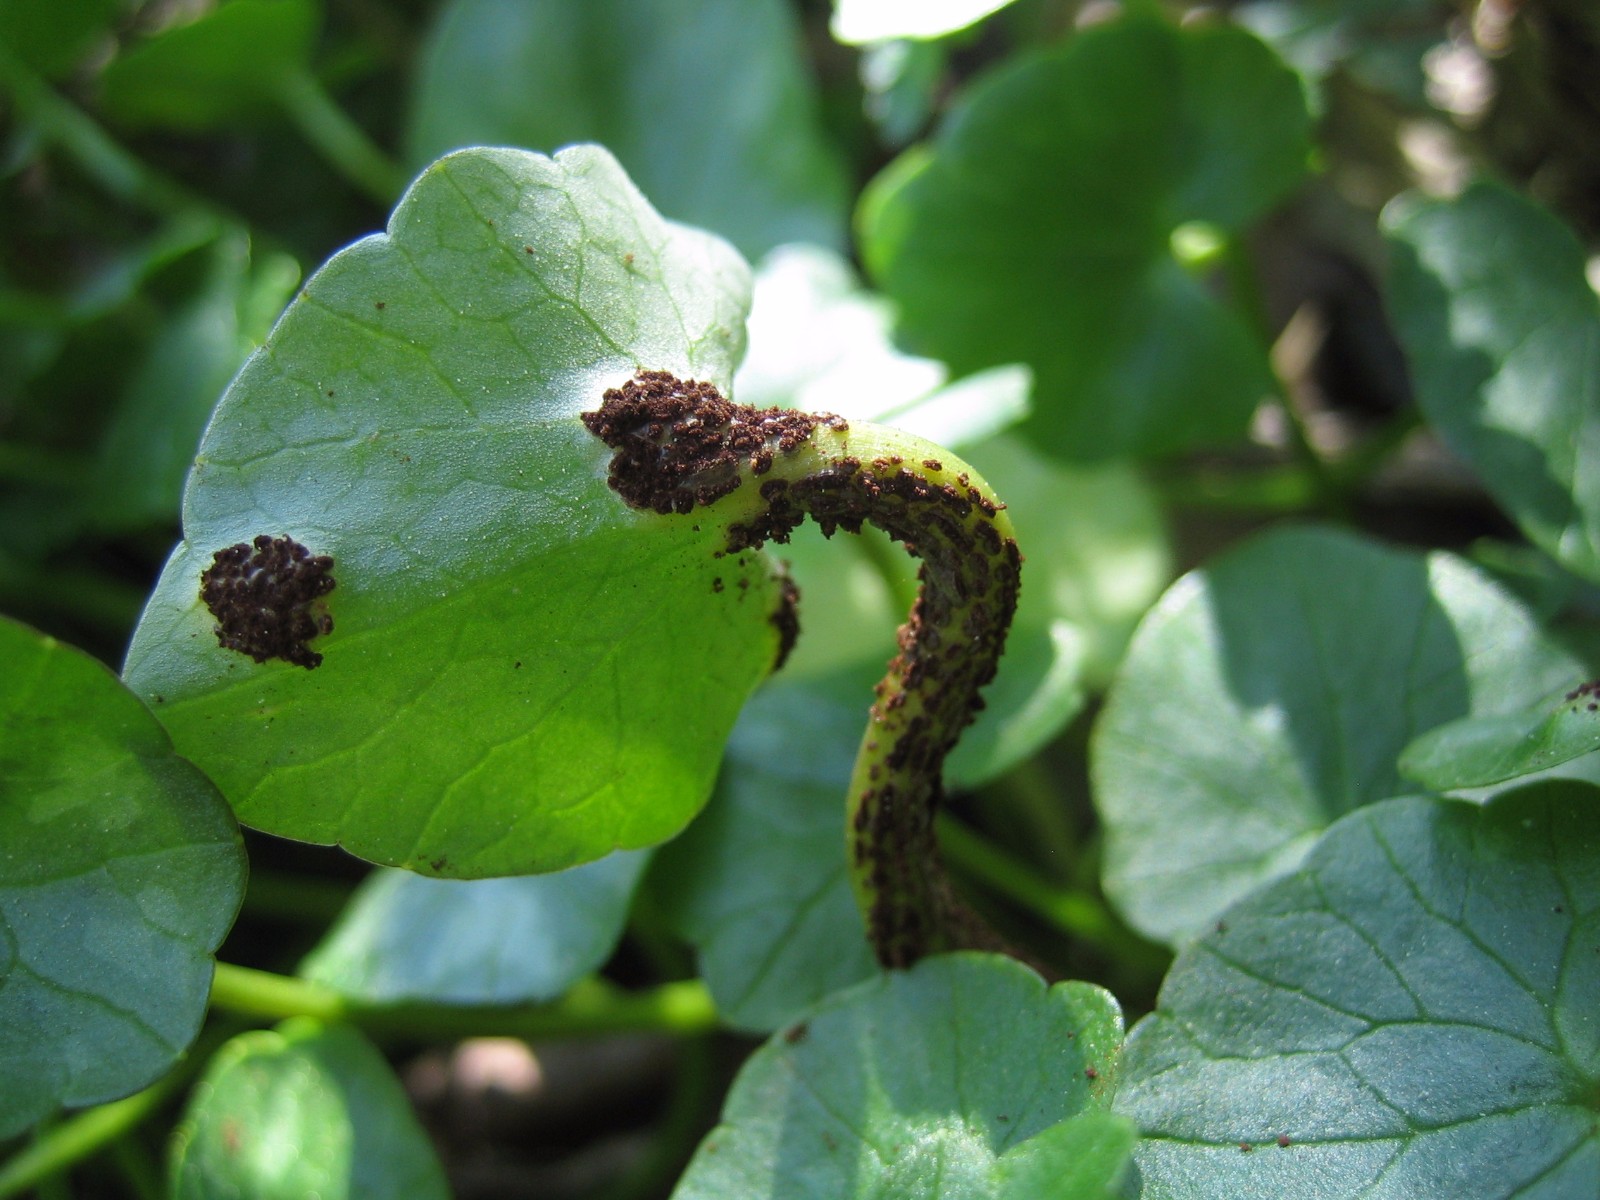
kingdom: Fungi
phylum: Basidiomycota
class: Pucciniomycetes
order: Pucciniales
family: Pucciniaceae
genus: Uromyces
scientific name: Uromyces ficariae
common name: vorterod-encellerust
